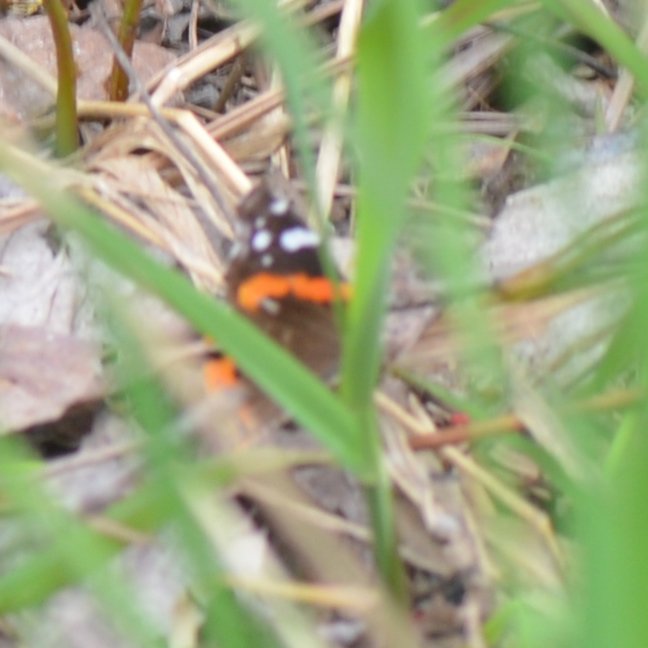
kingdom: Animalia
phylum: Arthropoda
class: Insecta
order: Lepidoptera
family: Nymphalidae
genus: Vanessa
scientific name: Vanessa atalanta
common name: Red Admiral
